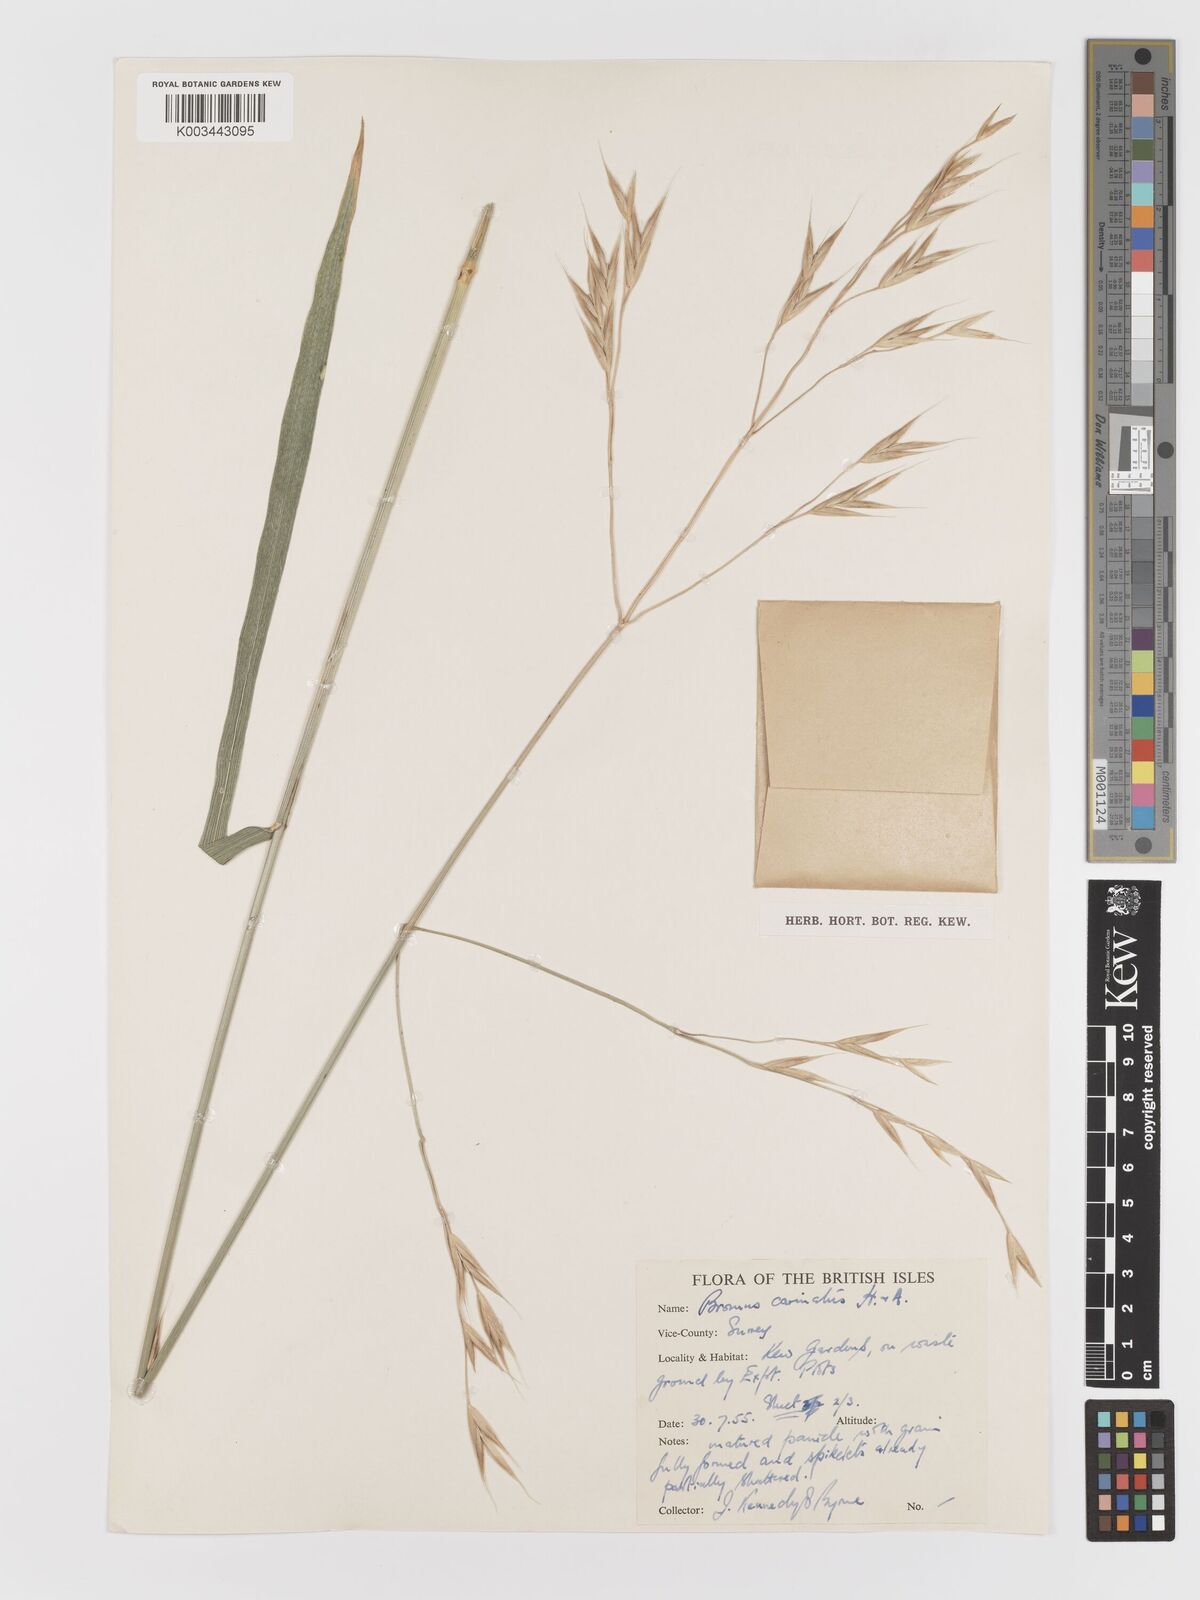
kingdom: Plantae
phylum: Tracheophyta
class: Liliopsida
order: Poales
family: Poaceae
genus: Bromus
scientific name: Bromus carinatus
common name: Mountain brome
